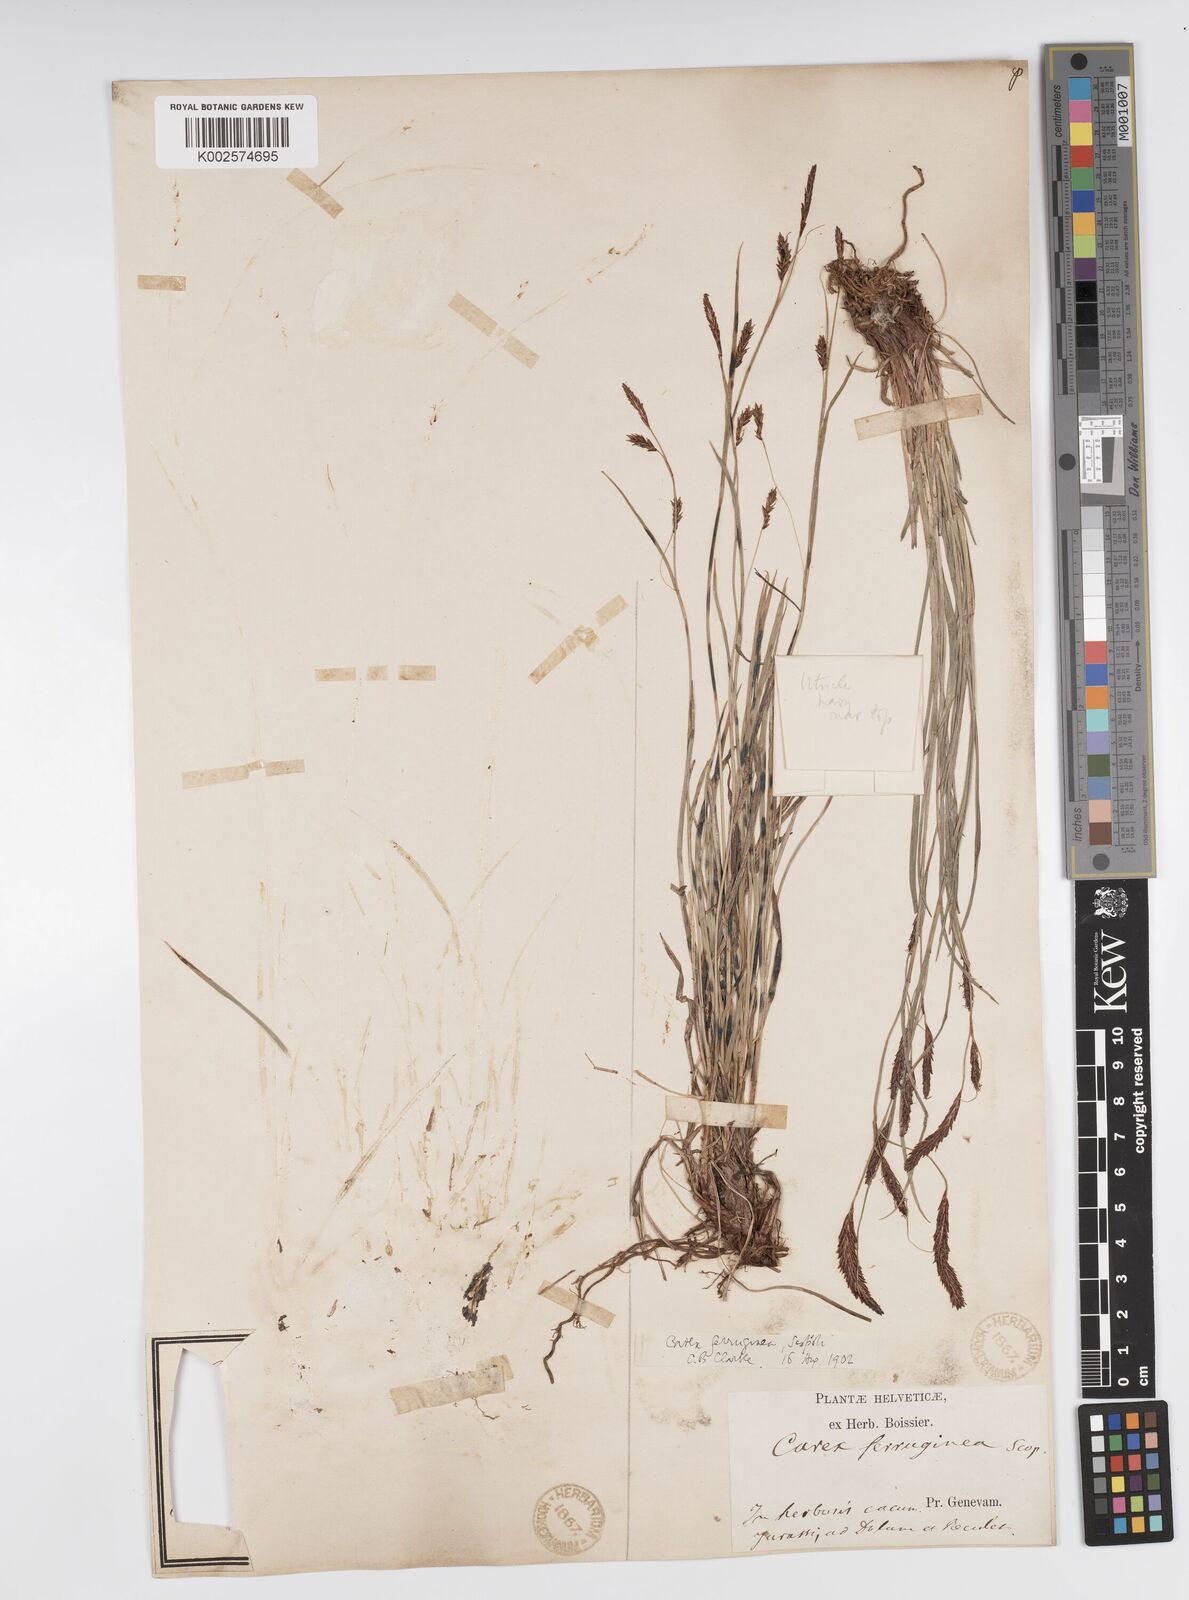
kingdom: Plantae
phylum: Tracheophyta
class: Liliopsida
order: Poales
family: Cyperaceae
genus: Carex
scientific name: Carex ferruginea
